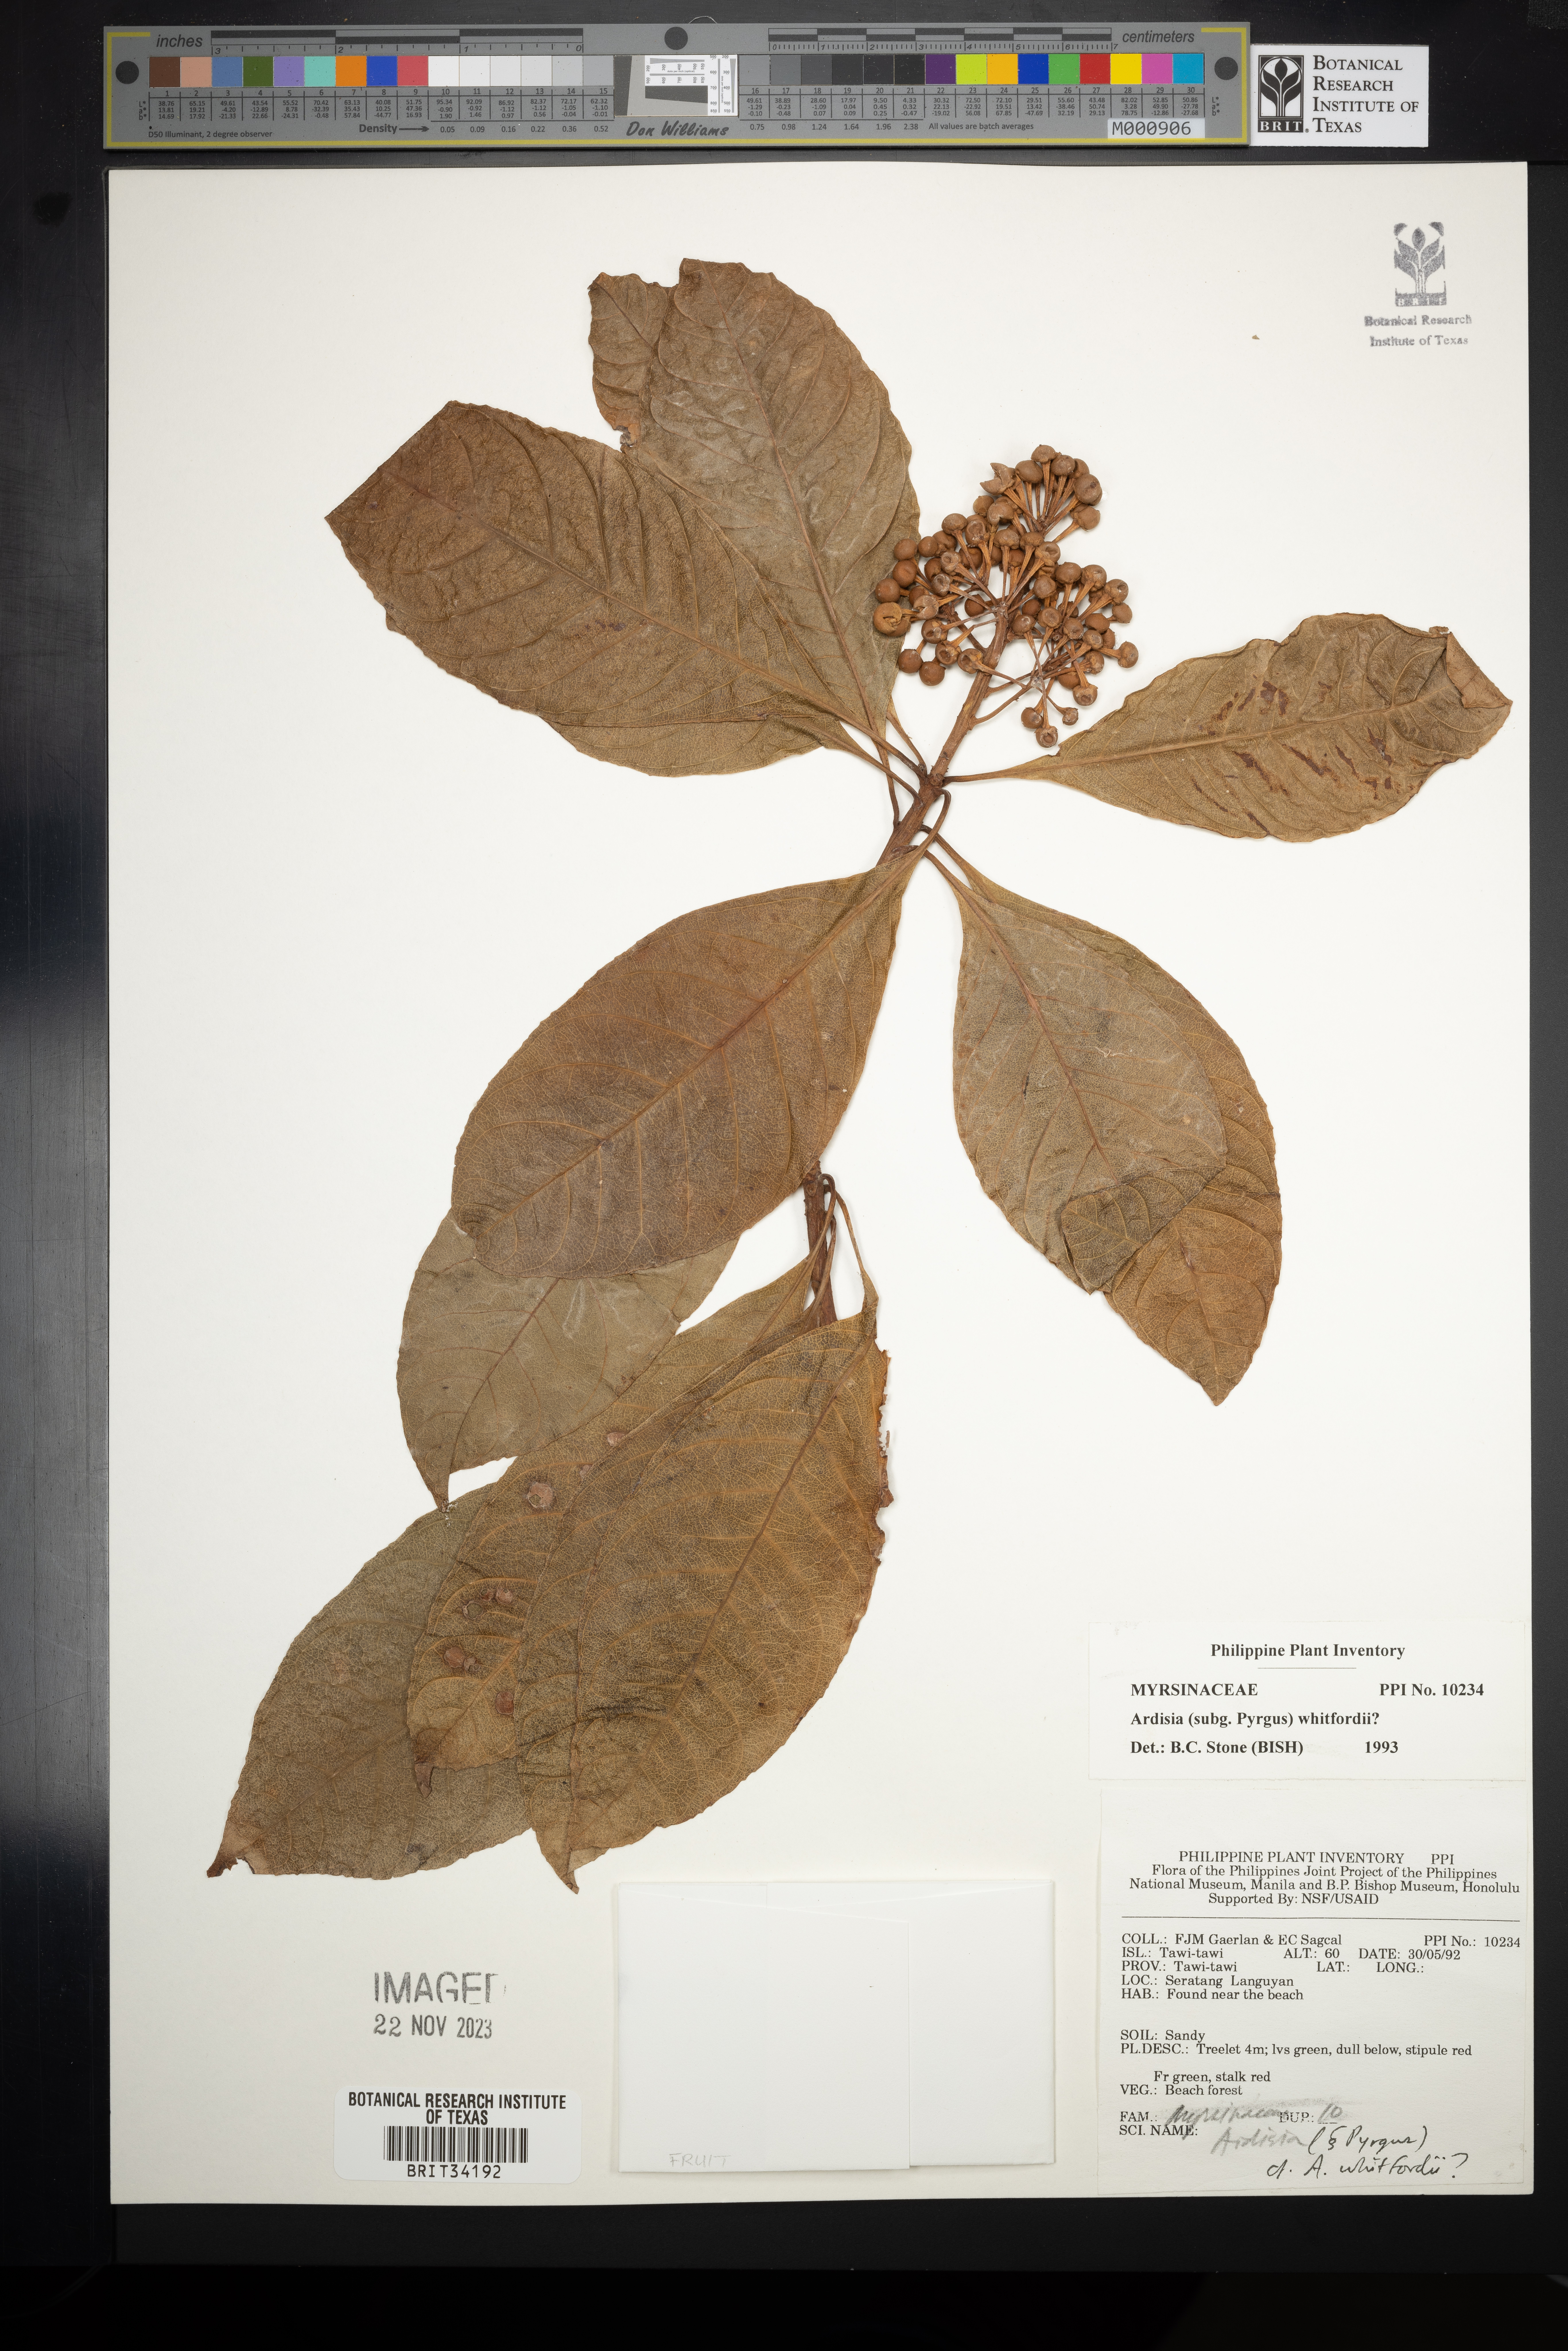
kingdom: Plantae
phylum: Tracheophyta
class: Magnoliopsida
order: Ericales
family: Primulaceae
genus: Ardisia
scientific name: Ardisia serrata
